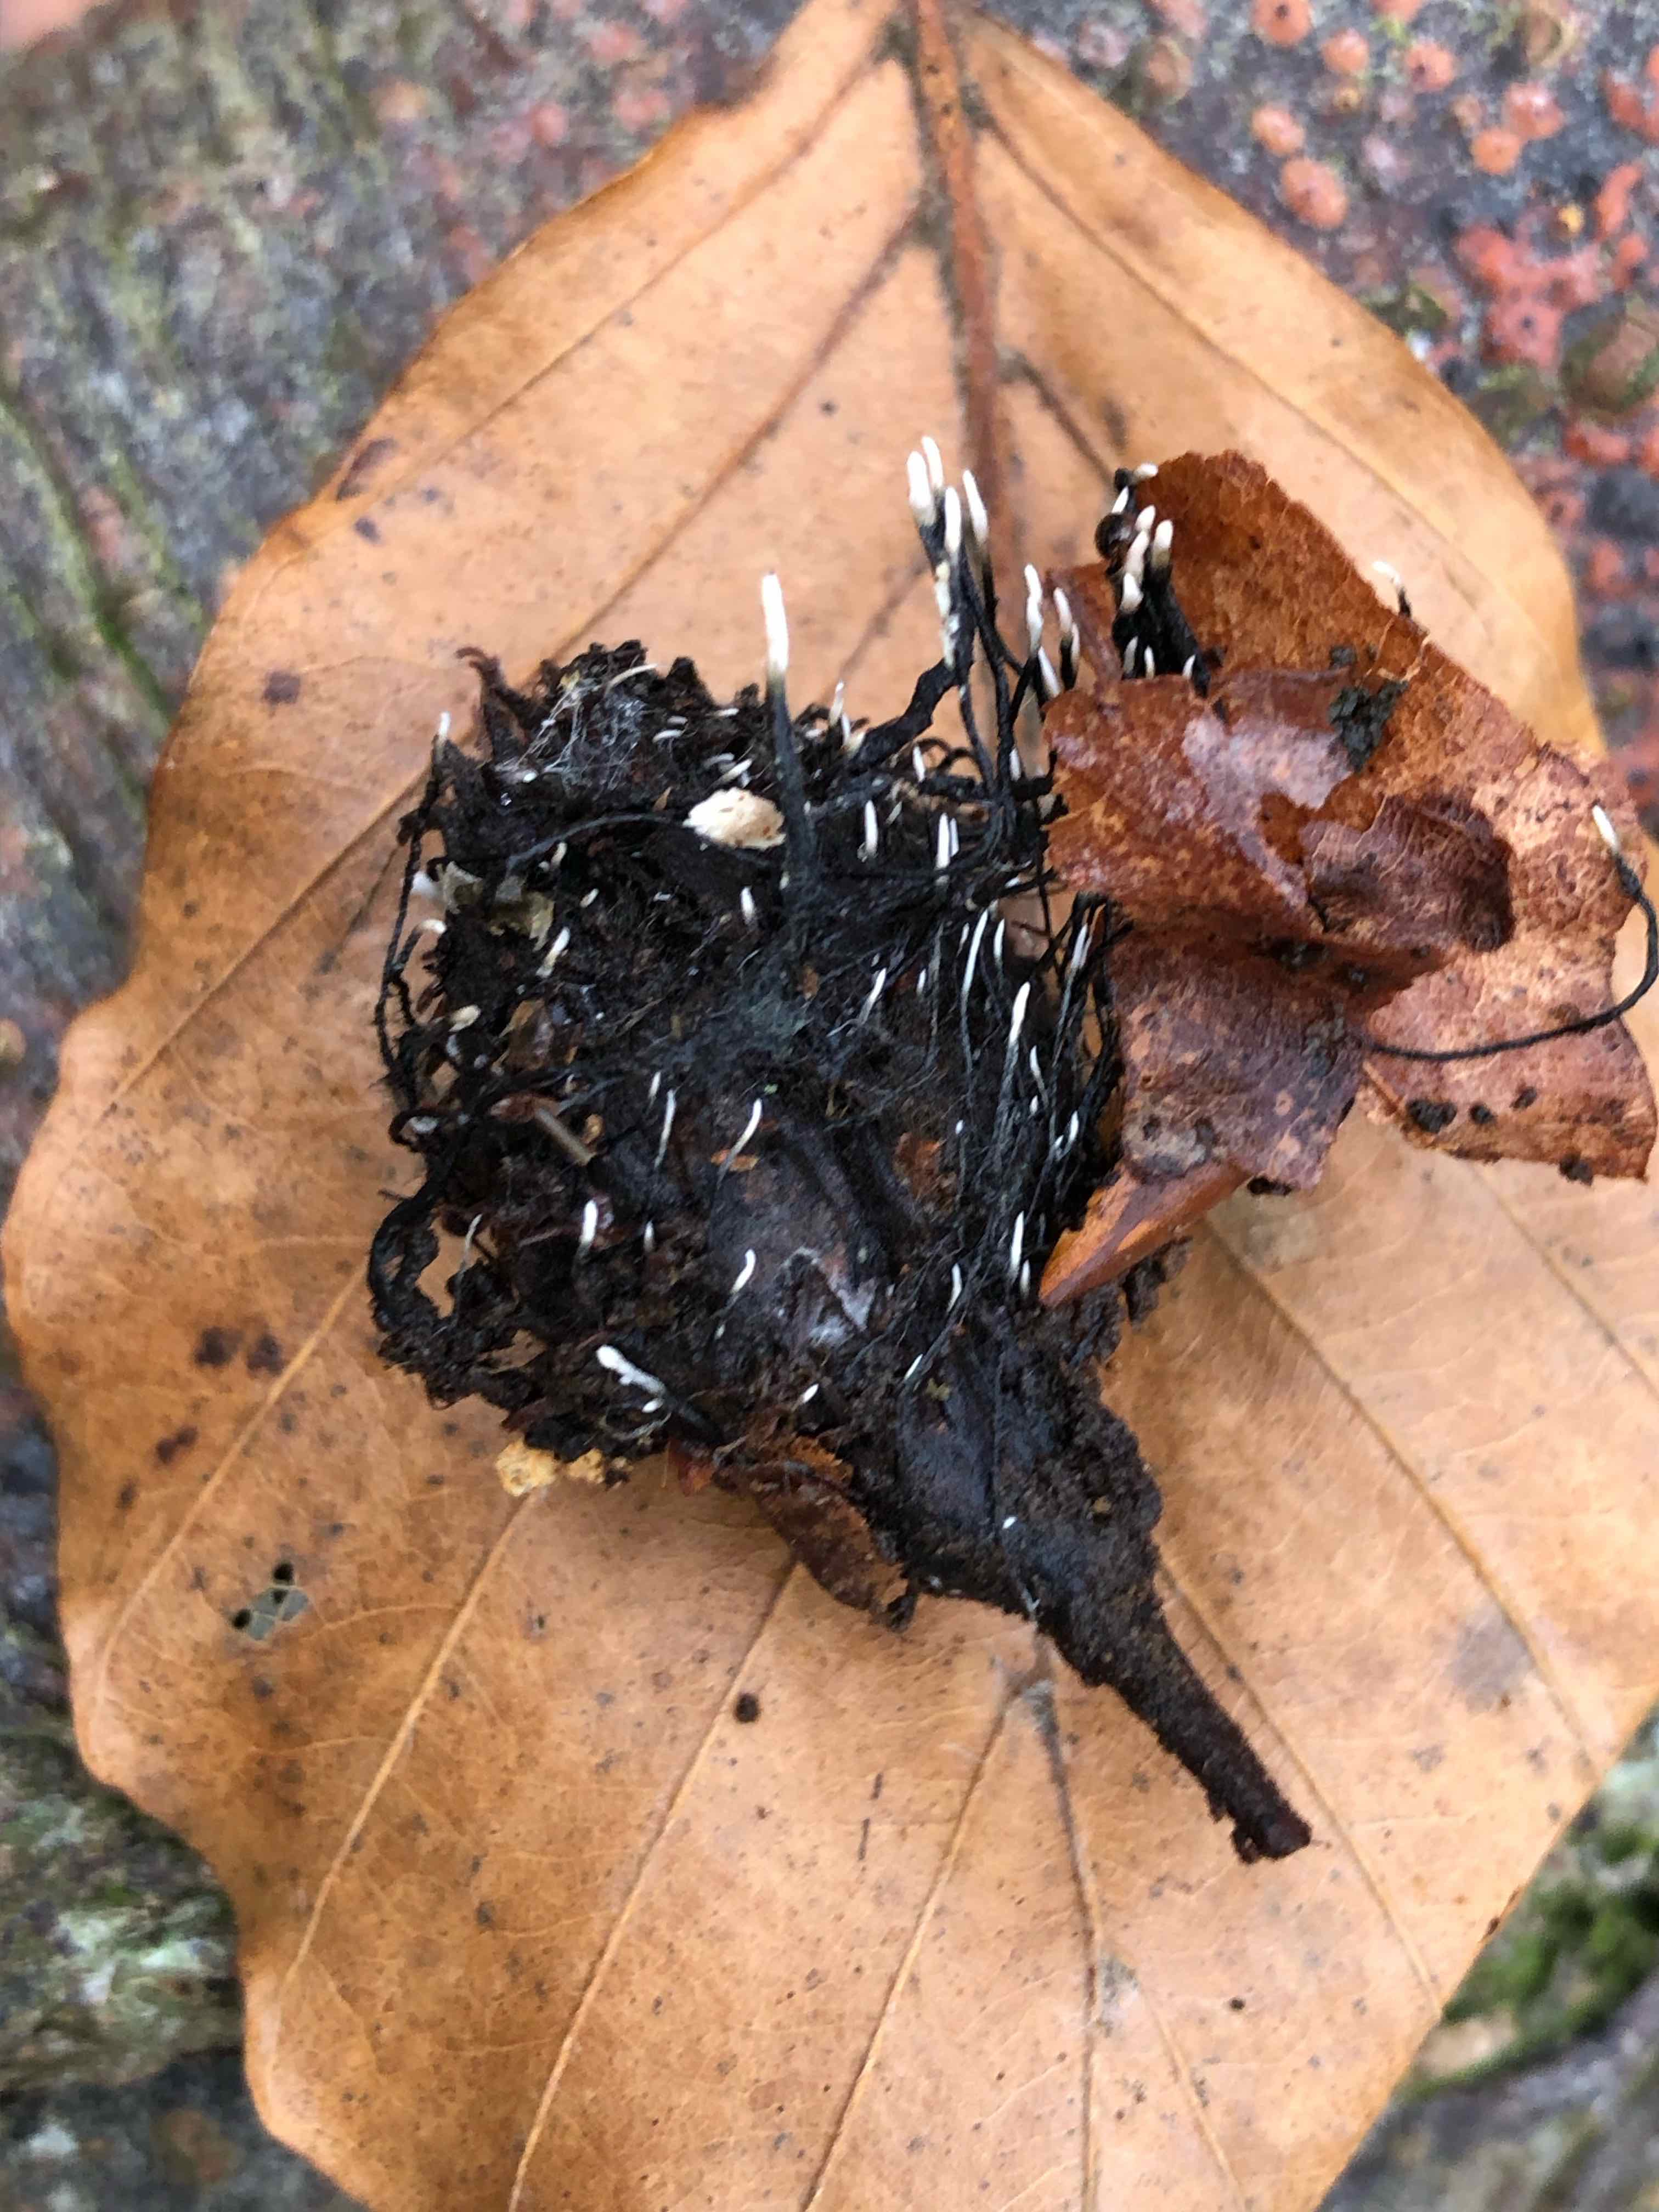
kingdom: Fungi
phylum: Ascomycota
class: Sordariomycetes
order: Xylariales
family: Xylariaceae
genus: Xylaria
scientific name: Xylaria carpophila
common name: bogskål-stødsvamp
